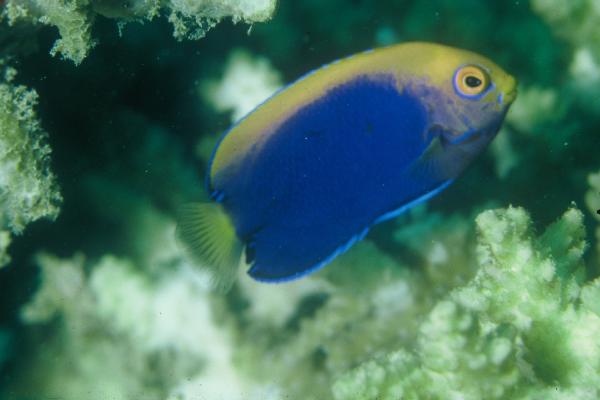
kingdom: Animalia
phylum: Chordata
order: Perciformes
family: Pomacanthidae
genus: Centropyge
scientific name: Centropyge acanthops
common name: African pygmy angelfish
